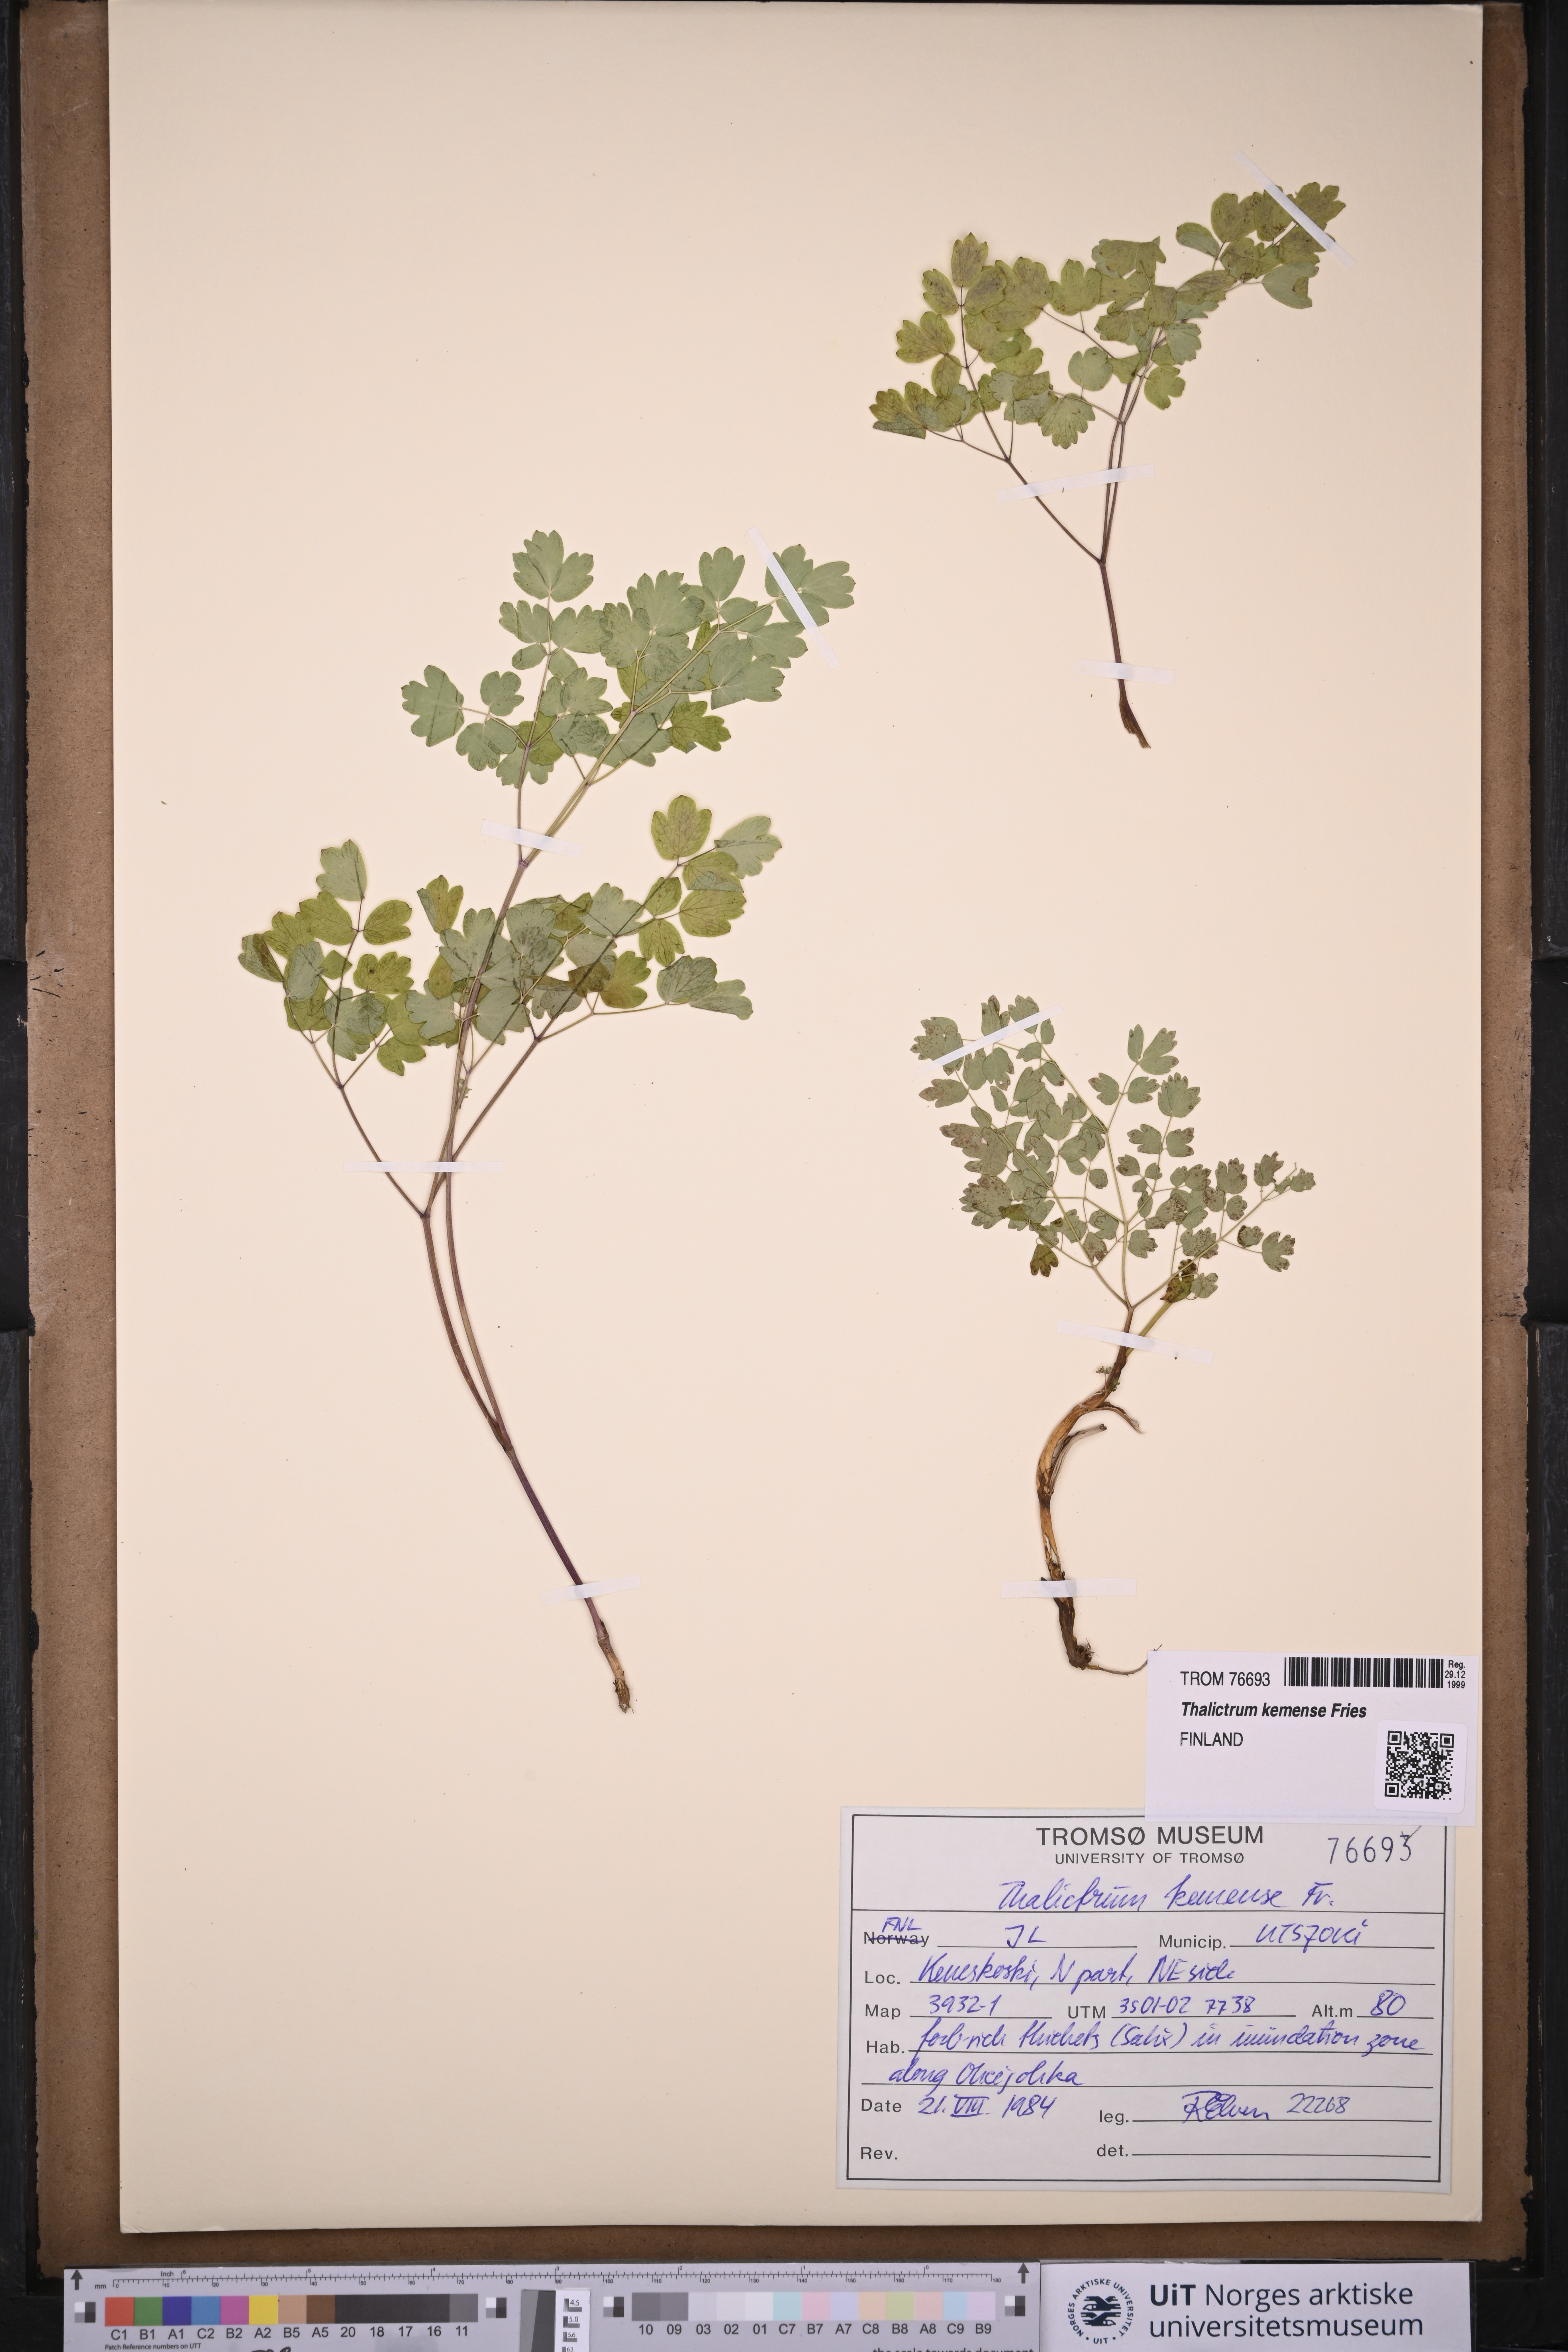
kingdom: Plantae
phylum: Tracheophyta
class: Magnoliopsida
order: Ranunculales
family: Ranunculaceae
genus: Thalictrum
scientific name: Thalictrum minus
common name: Lesser meadow-rue
